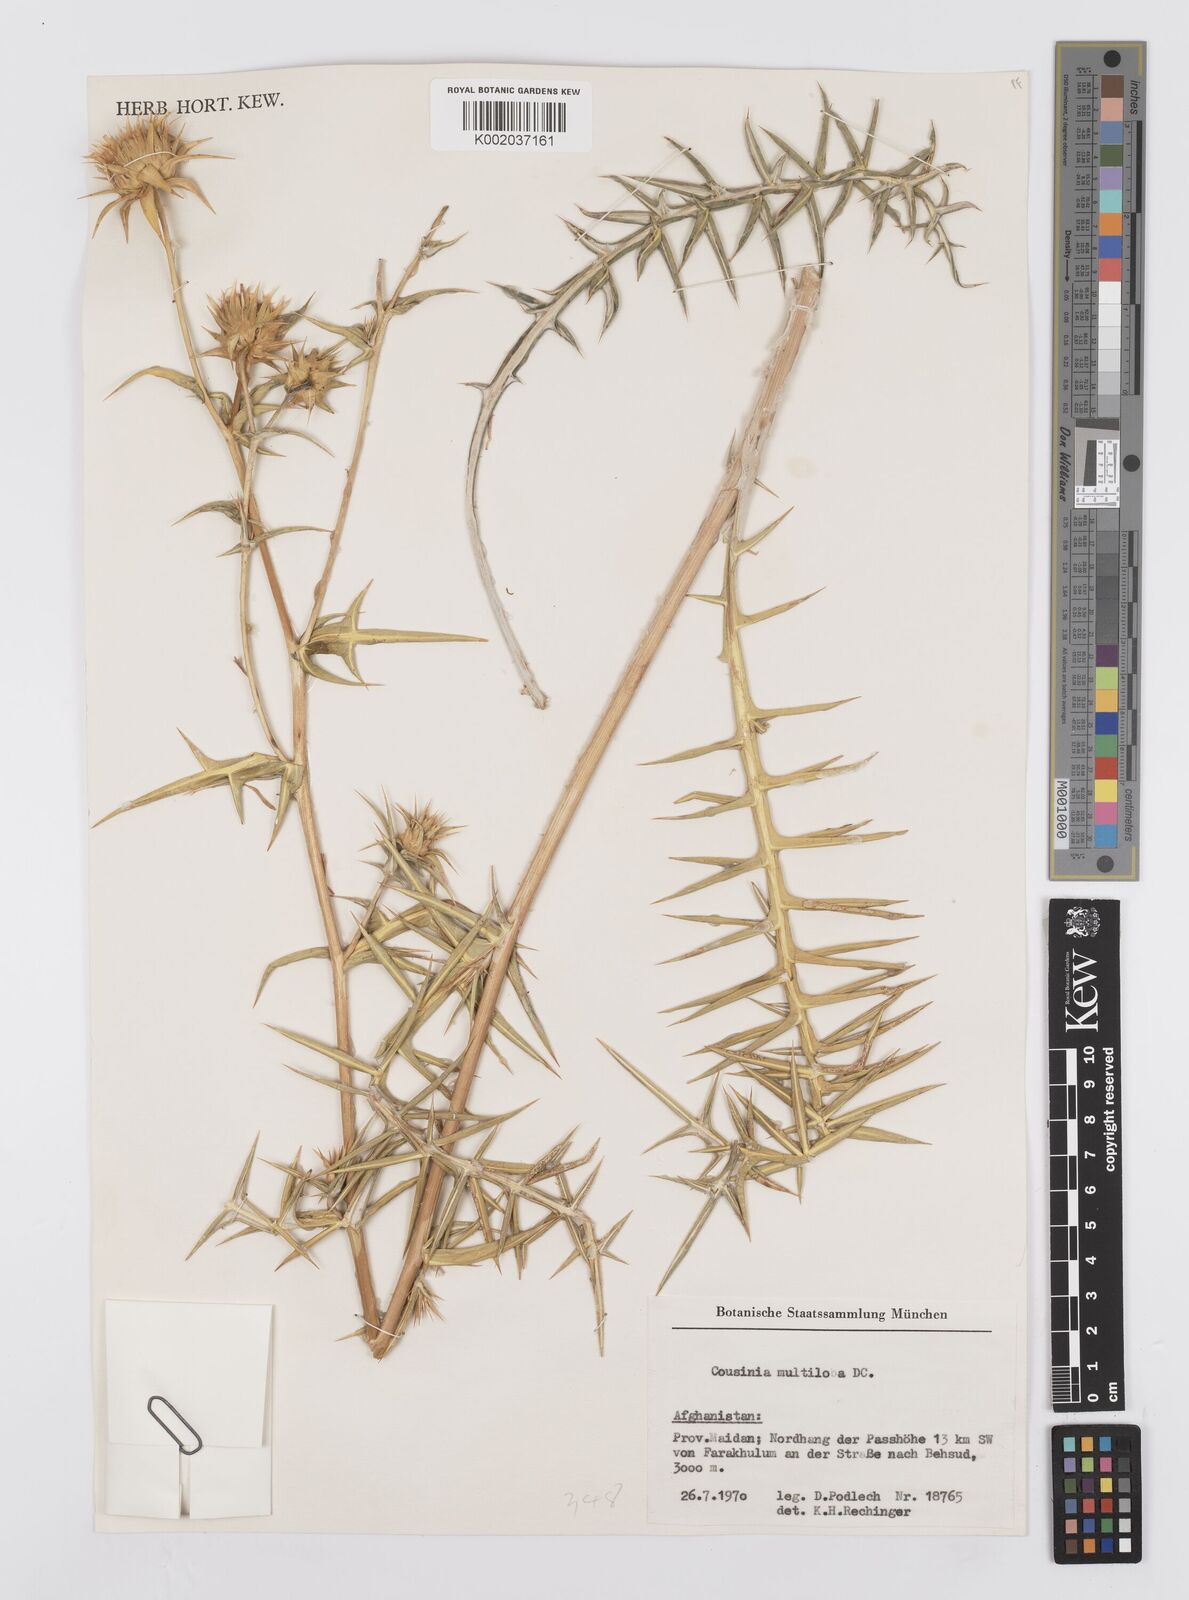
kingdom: Plantae
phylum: Tracheophyta
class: Magnoliopsida
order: Asterales
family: Asteraceae
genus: Cousinia
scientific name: Cousinia multiloba
